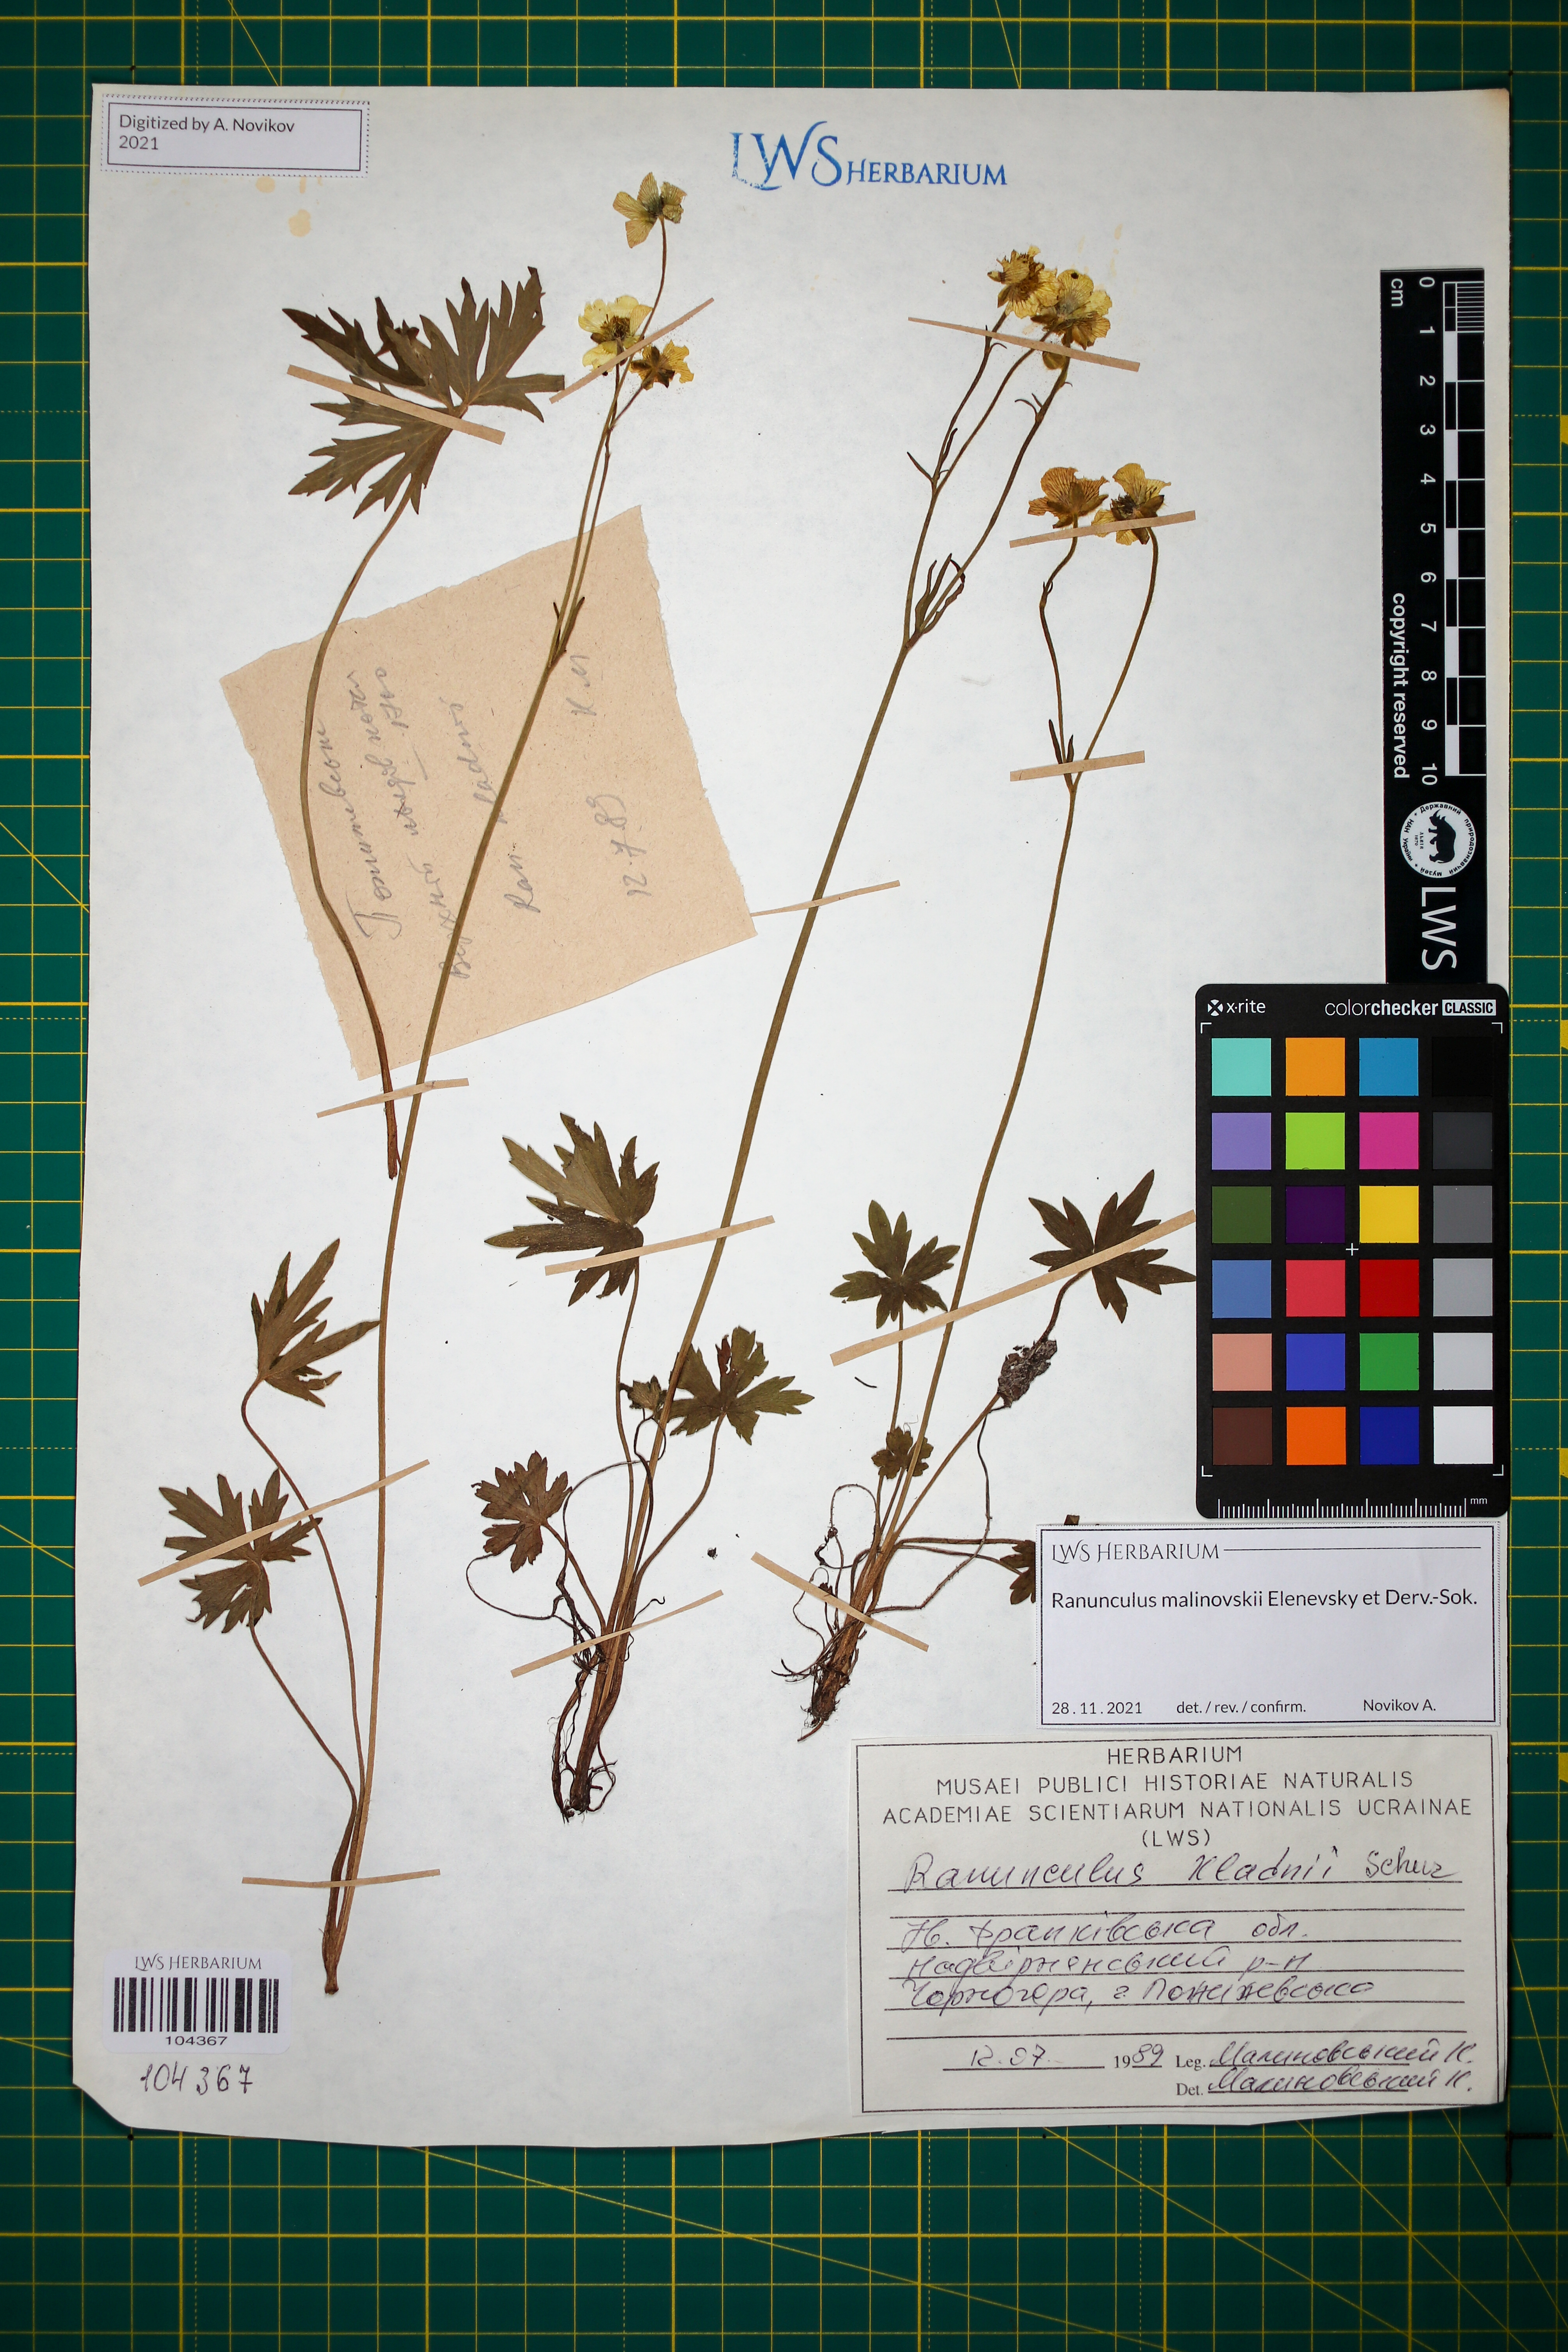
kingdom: Plantae
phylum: Tracheophyta
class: Magnoliopsida
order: Ranunculales
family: Ranunculaceae
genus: Ranunculus
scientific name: Ranunculus malinovskii
